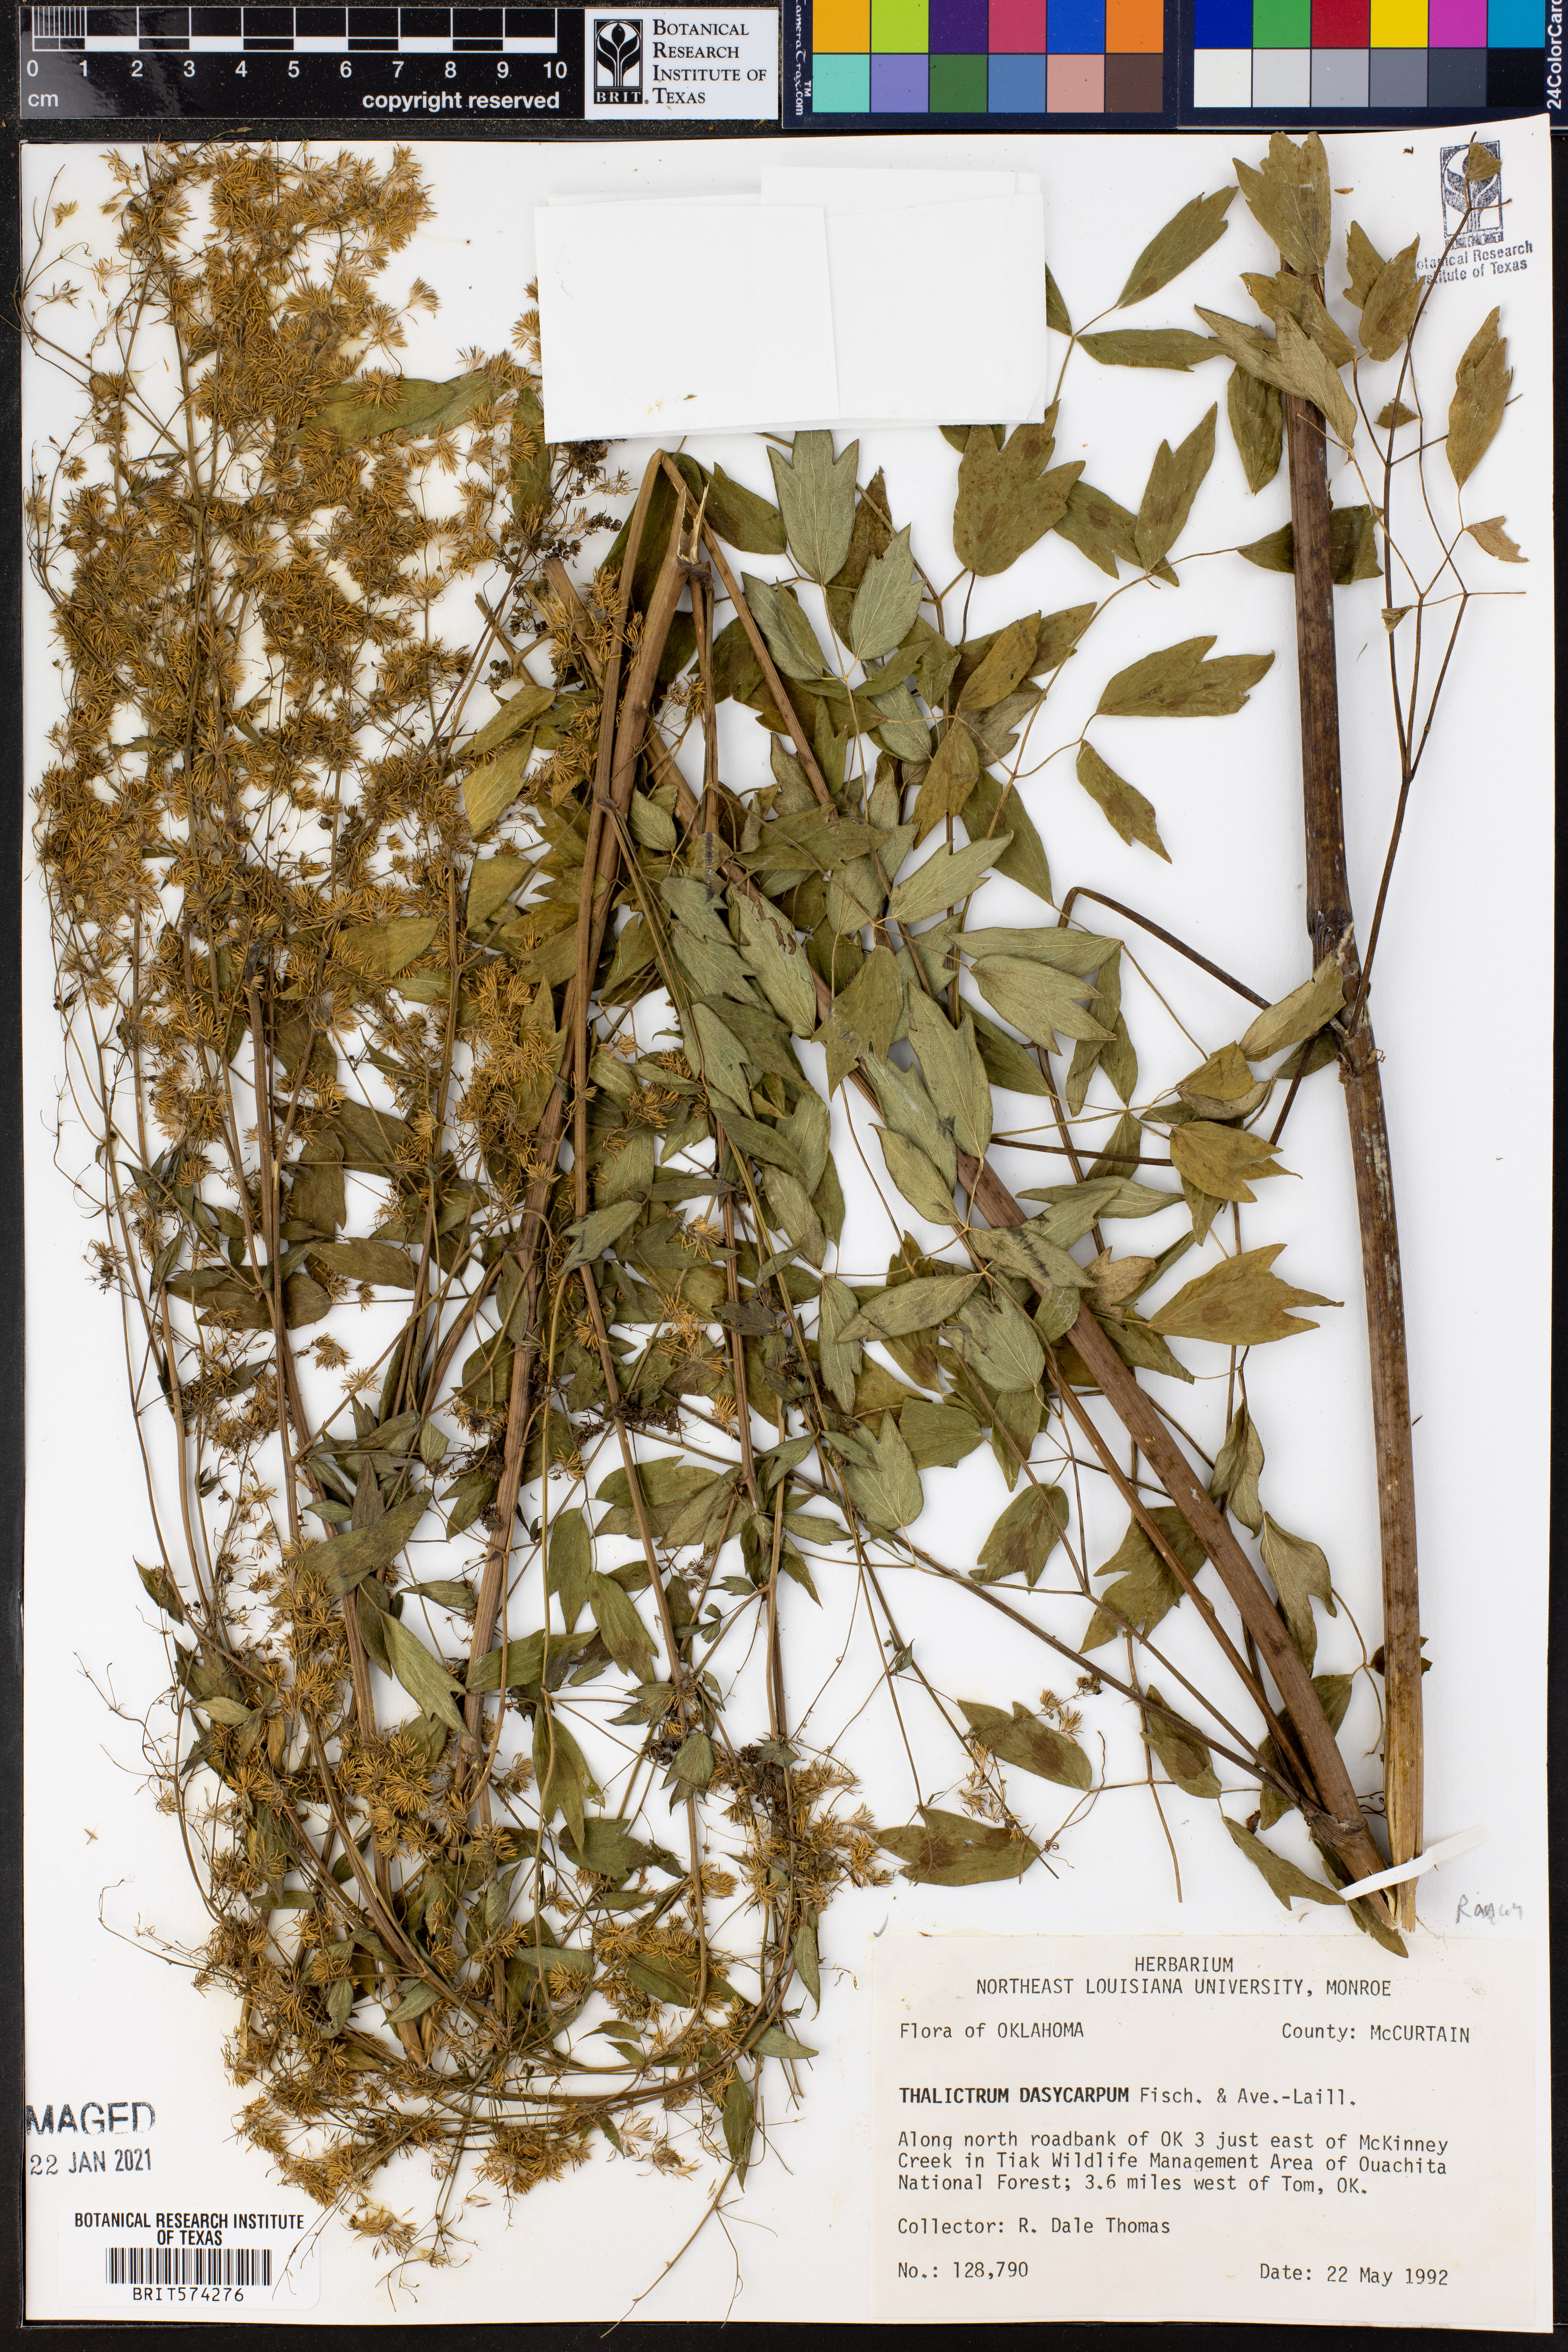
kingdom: Plantae
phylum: Tracheophyta
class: Magnoliopsida
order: Ranunculales
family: Ranunculaceae
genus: Thalictrum
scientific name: Thalictrum dasycarpum
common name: Purple meadow-rue
